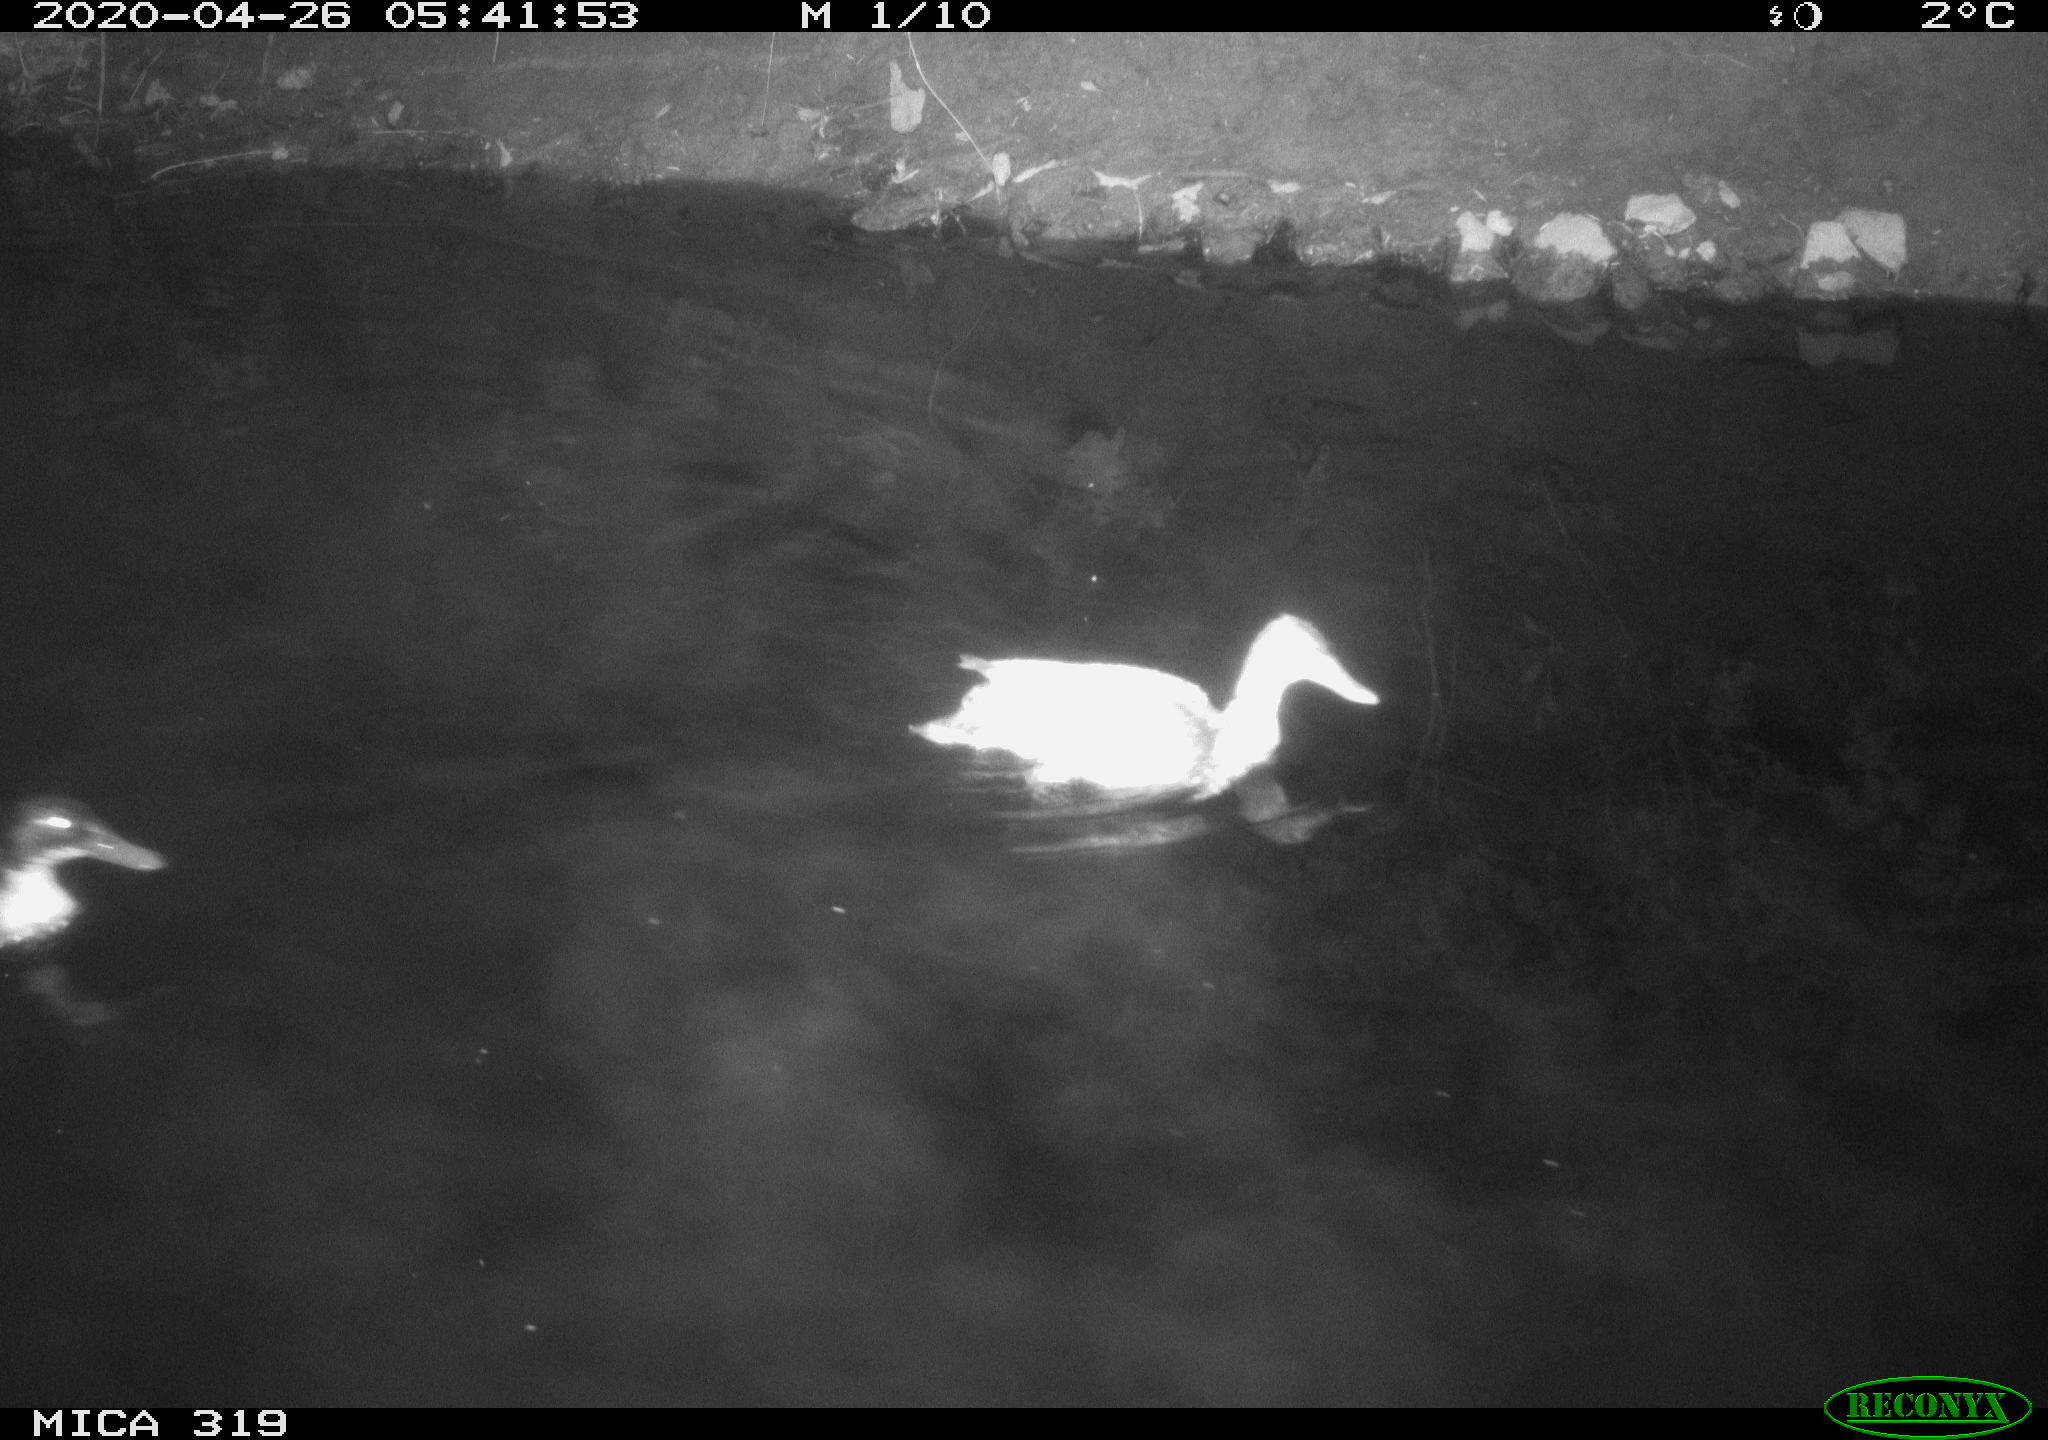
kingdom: Animalia
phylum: Chordata
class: Aves
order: Anseriformes
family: Anatidae
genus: Anas
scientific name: Anas platyrhynchos
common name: Mallard
